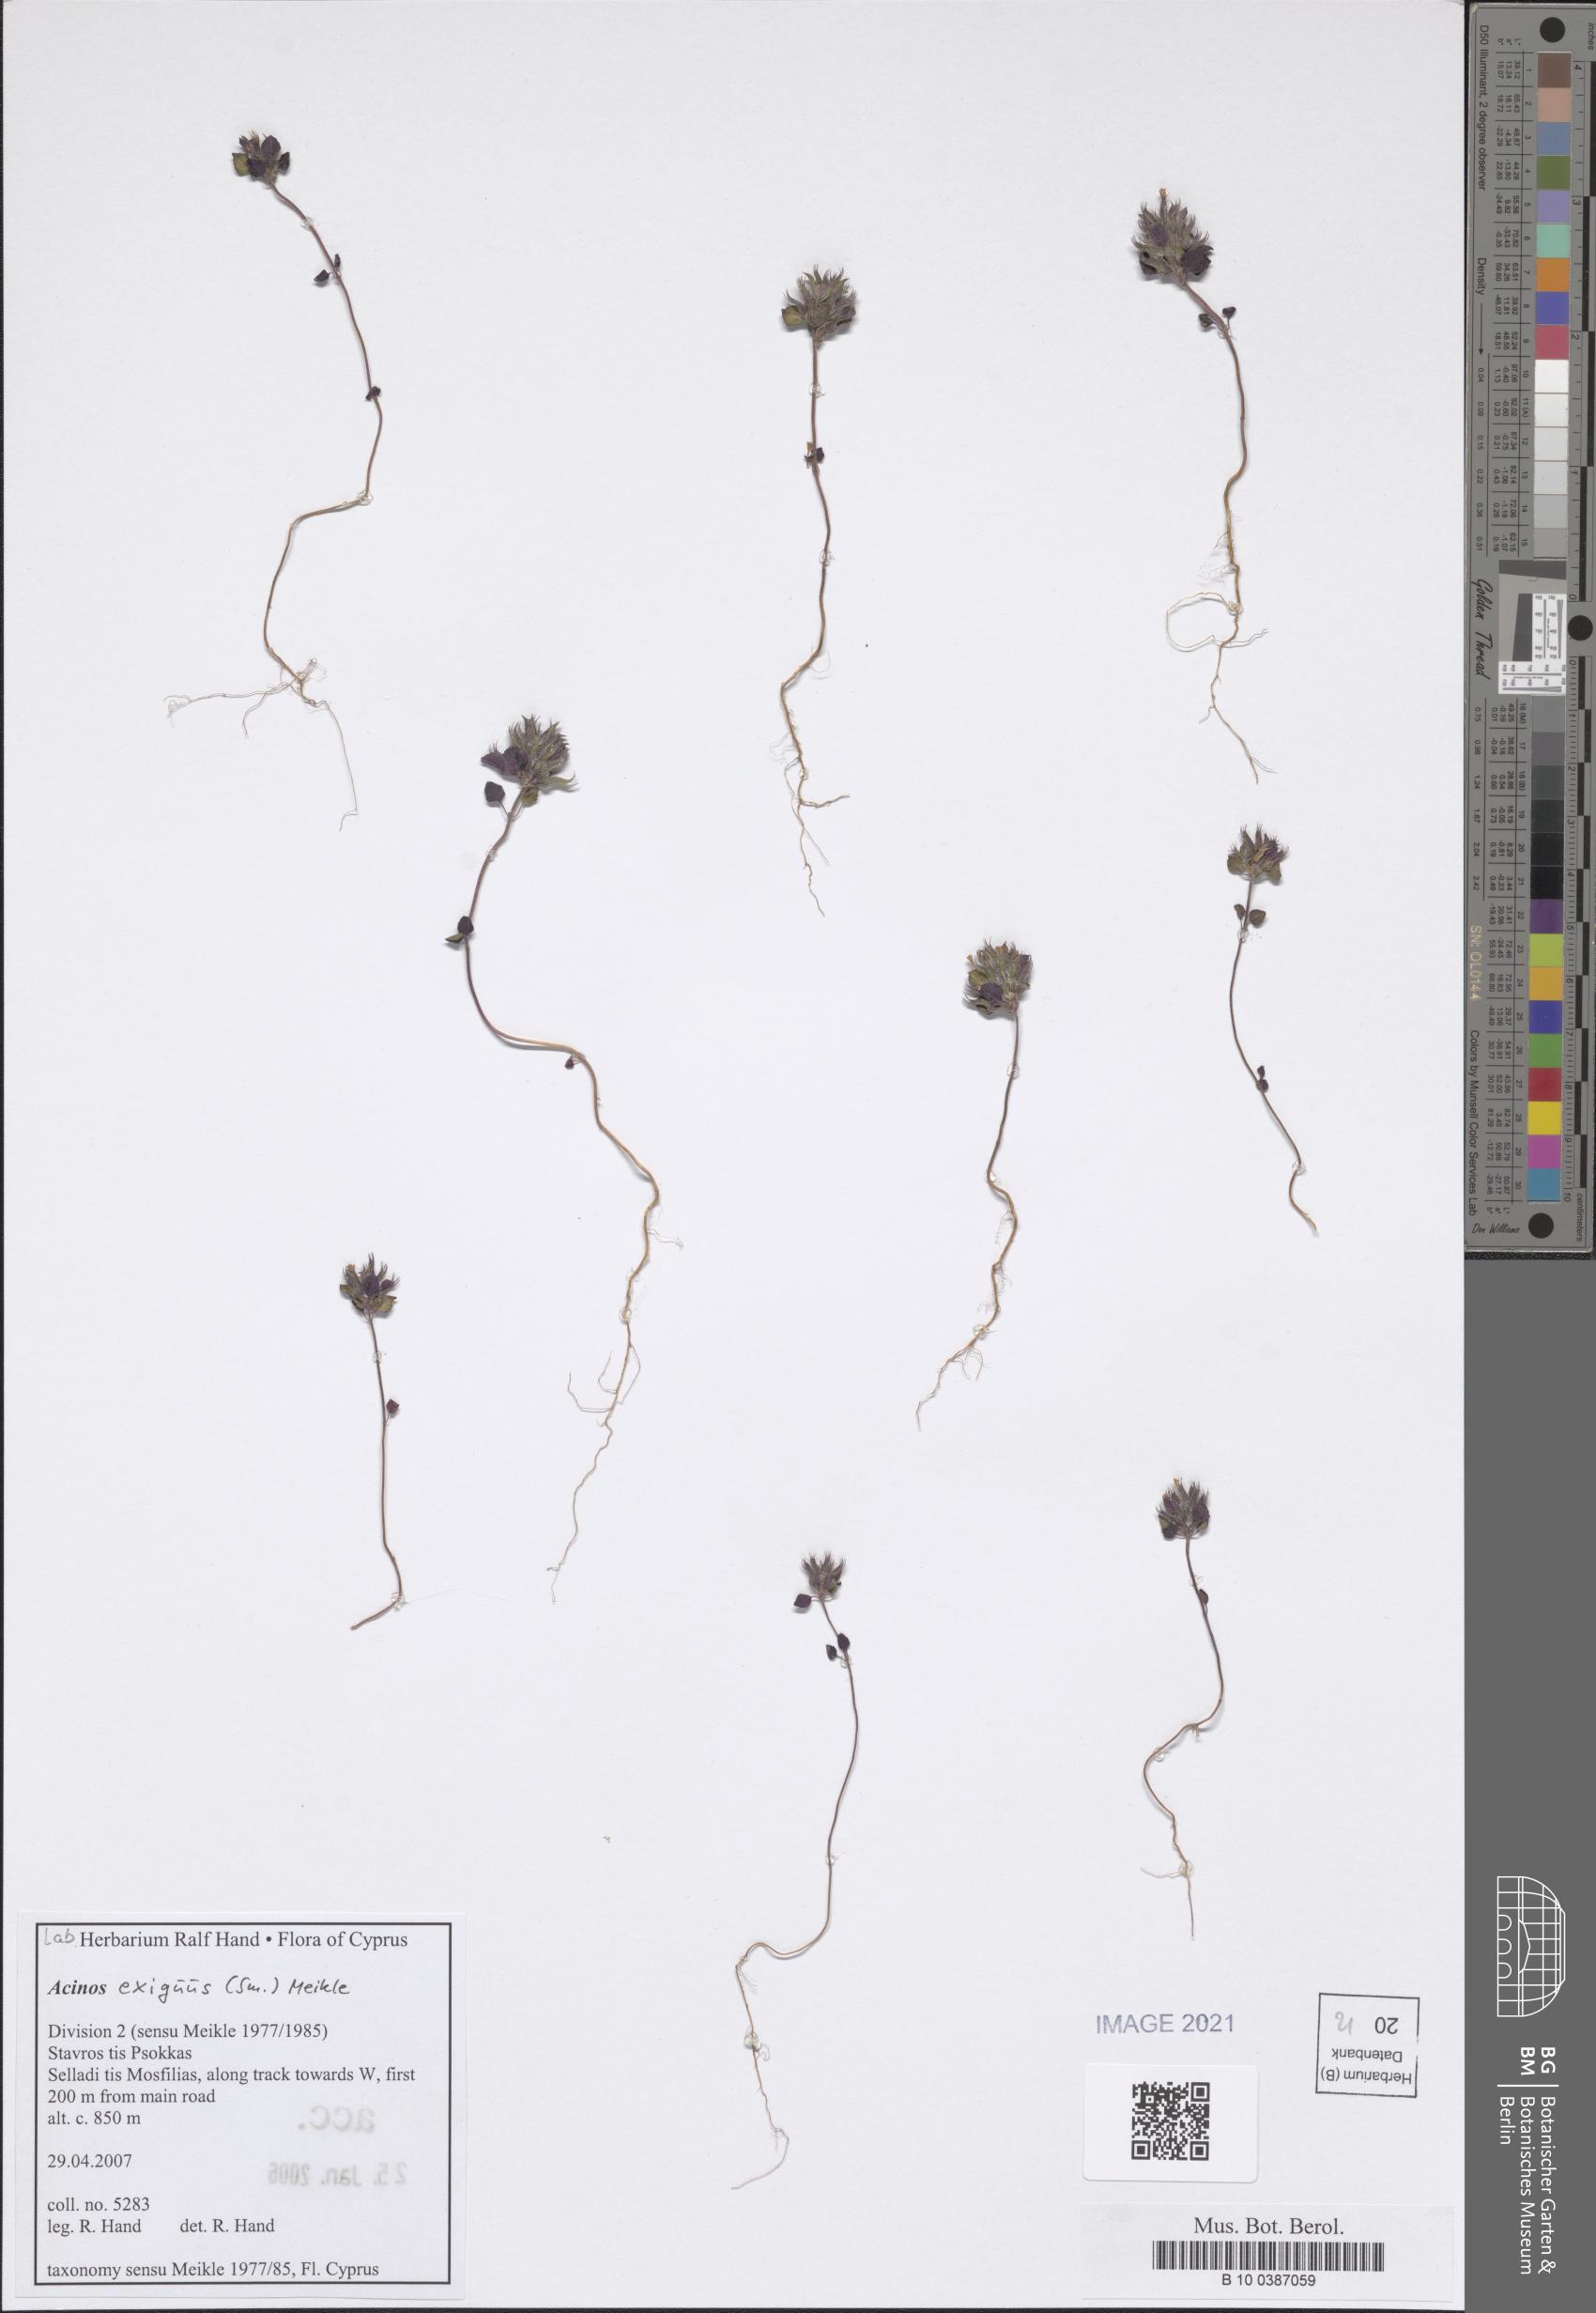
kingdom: Plantae
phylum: Tracheophyta
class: Magnoliopsida
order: Lamiales
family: Lamiaceae
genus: Clinopodium
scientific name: Clinopodium graveolens
